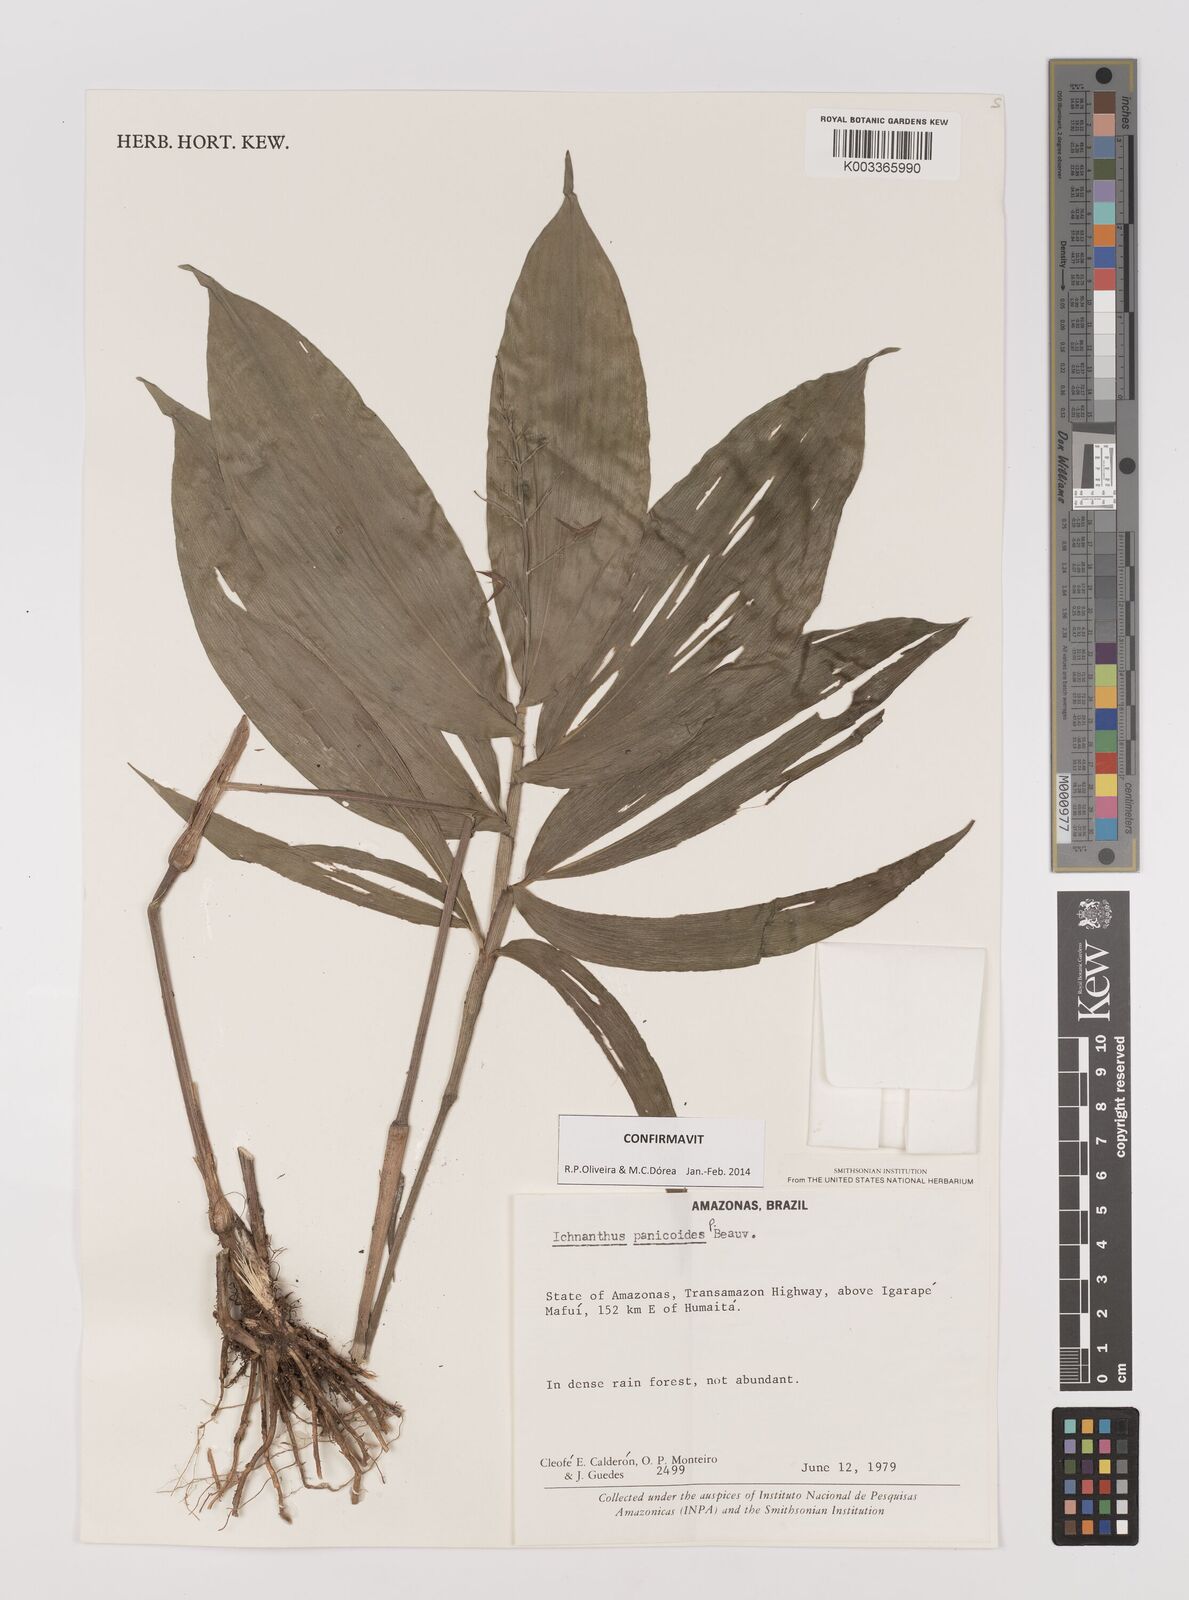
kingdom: Plantae
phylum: Tracheophyta
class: Liliopsida
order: Poales
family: Poaceae
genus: Ichnanthus
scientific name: Ichnanthus panicoides
